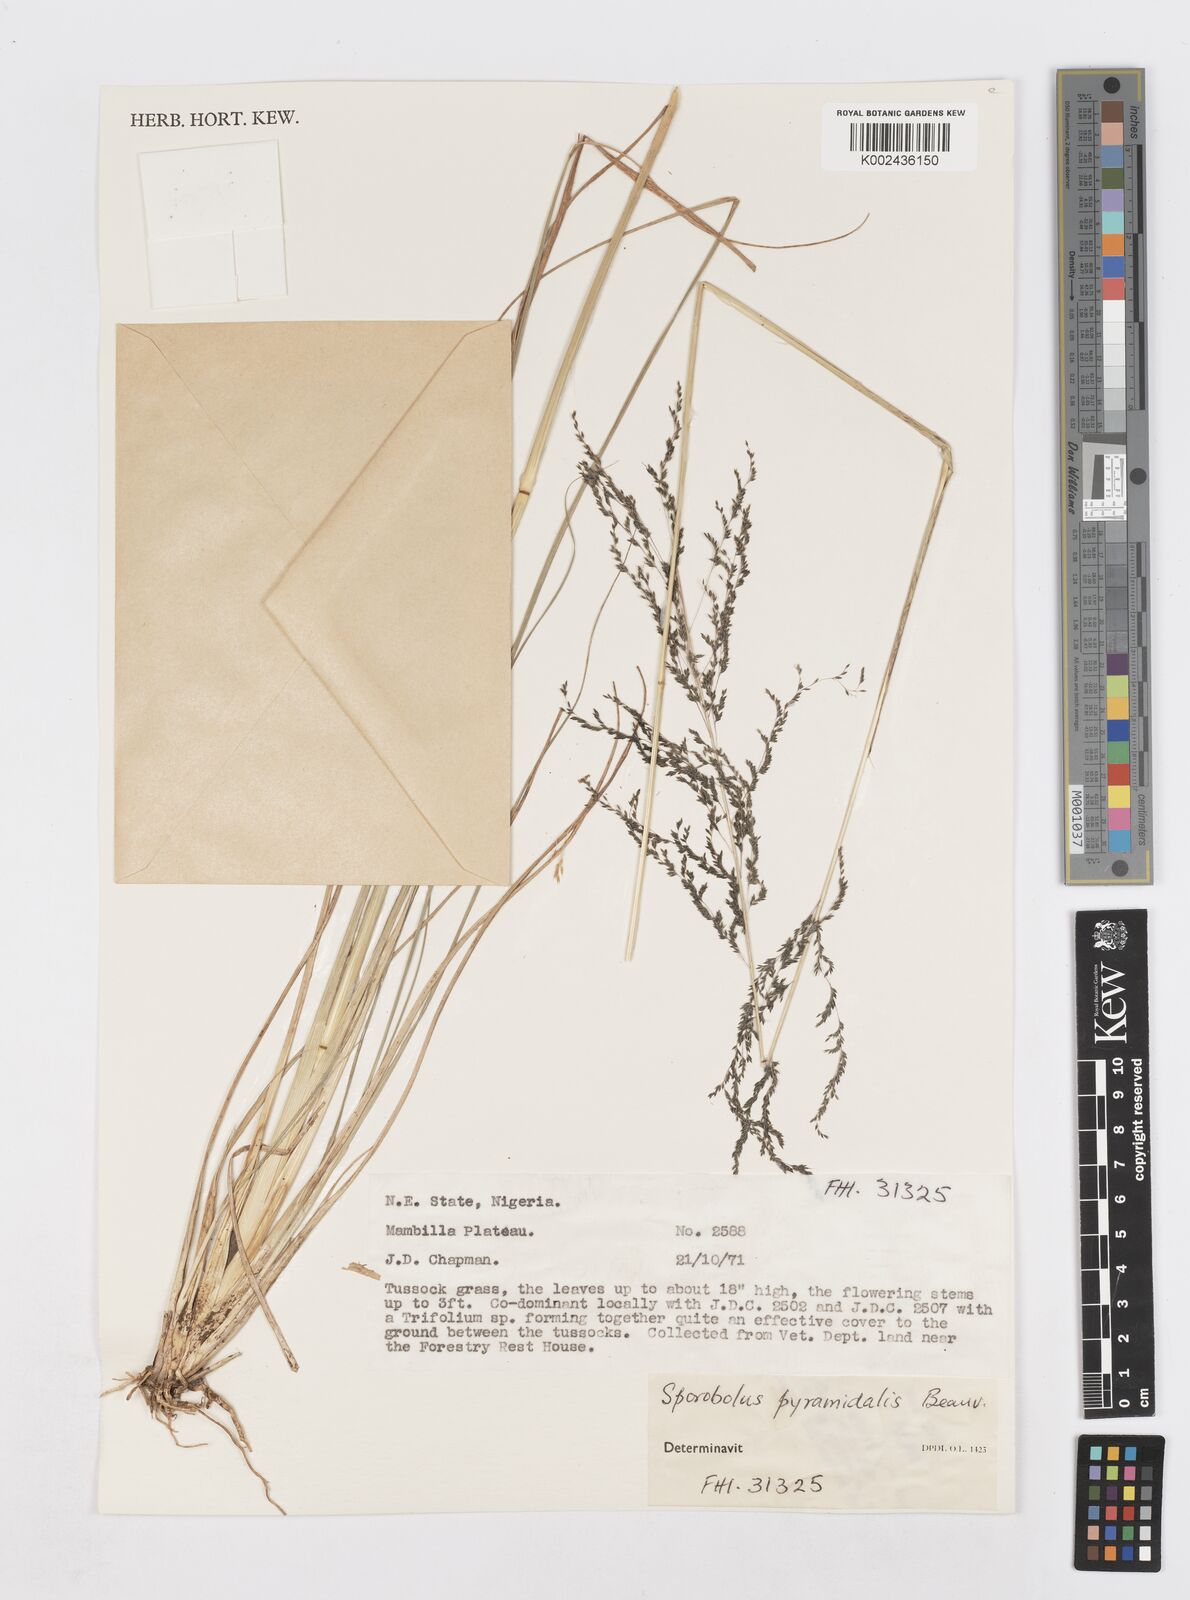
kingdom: Plantae
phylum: Tracheophyta
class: Liliopsida
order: Poales
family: Poaceae
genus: Sporobolus
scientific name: Sporobolus pyramidalis
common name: West indian dropseed
